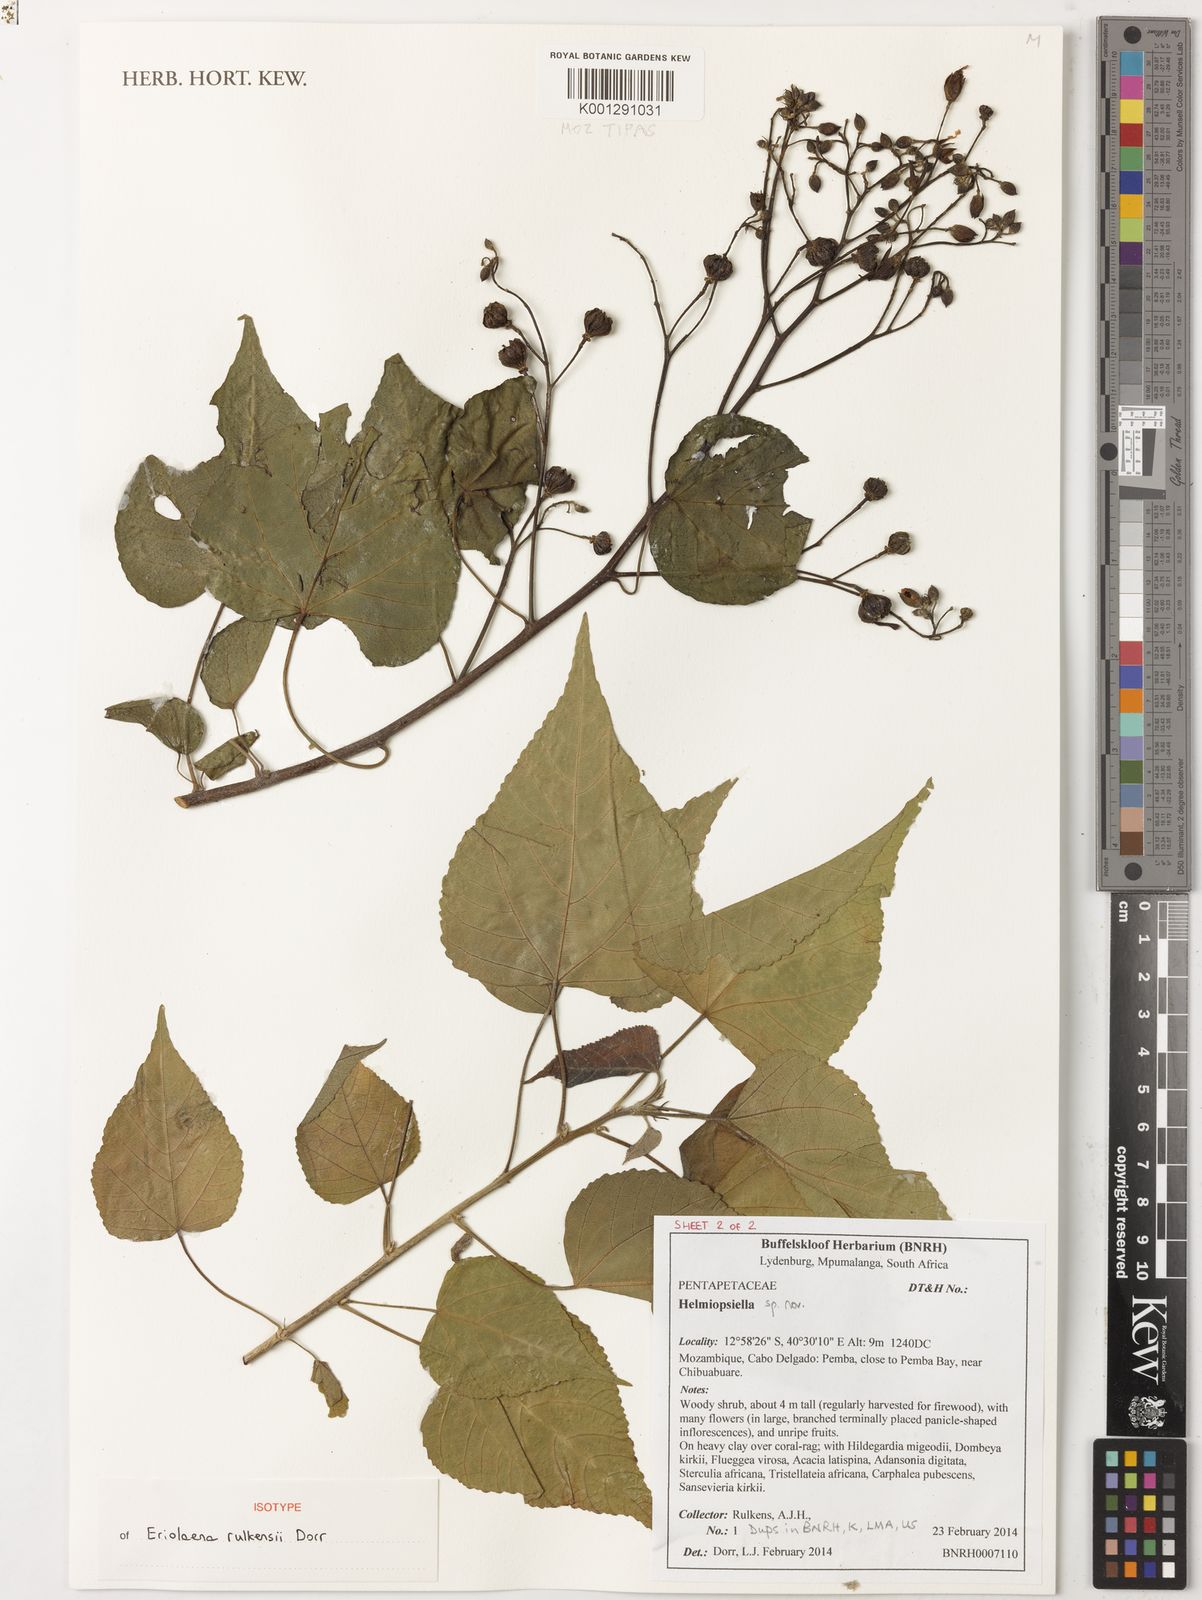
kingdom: Plantae
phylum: Tracheophyta
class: Magnoliopsida
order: Malvales
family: Malvaceae
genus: Eriolaena
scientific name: Eriolaena rulkensii
